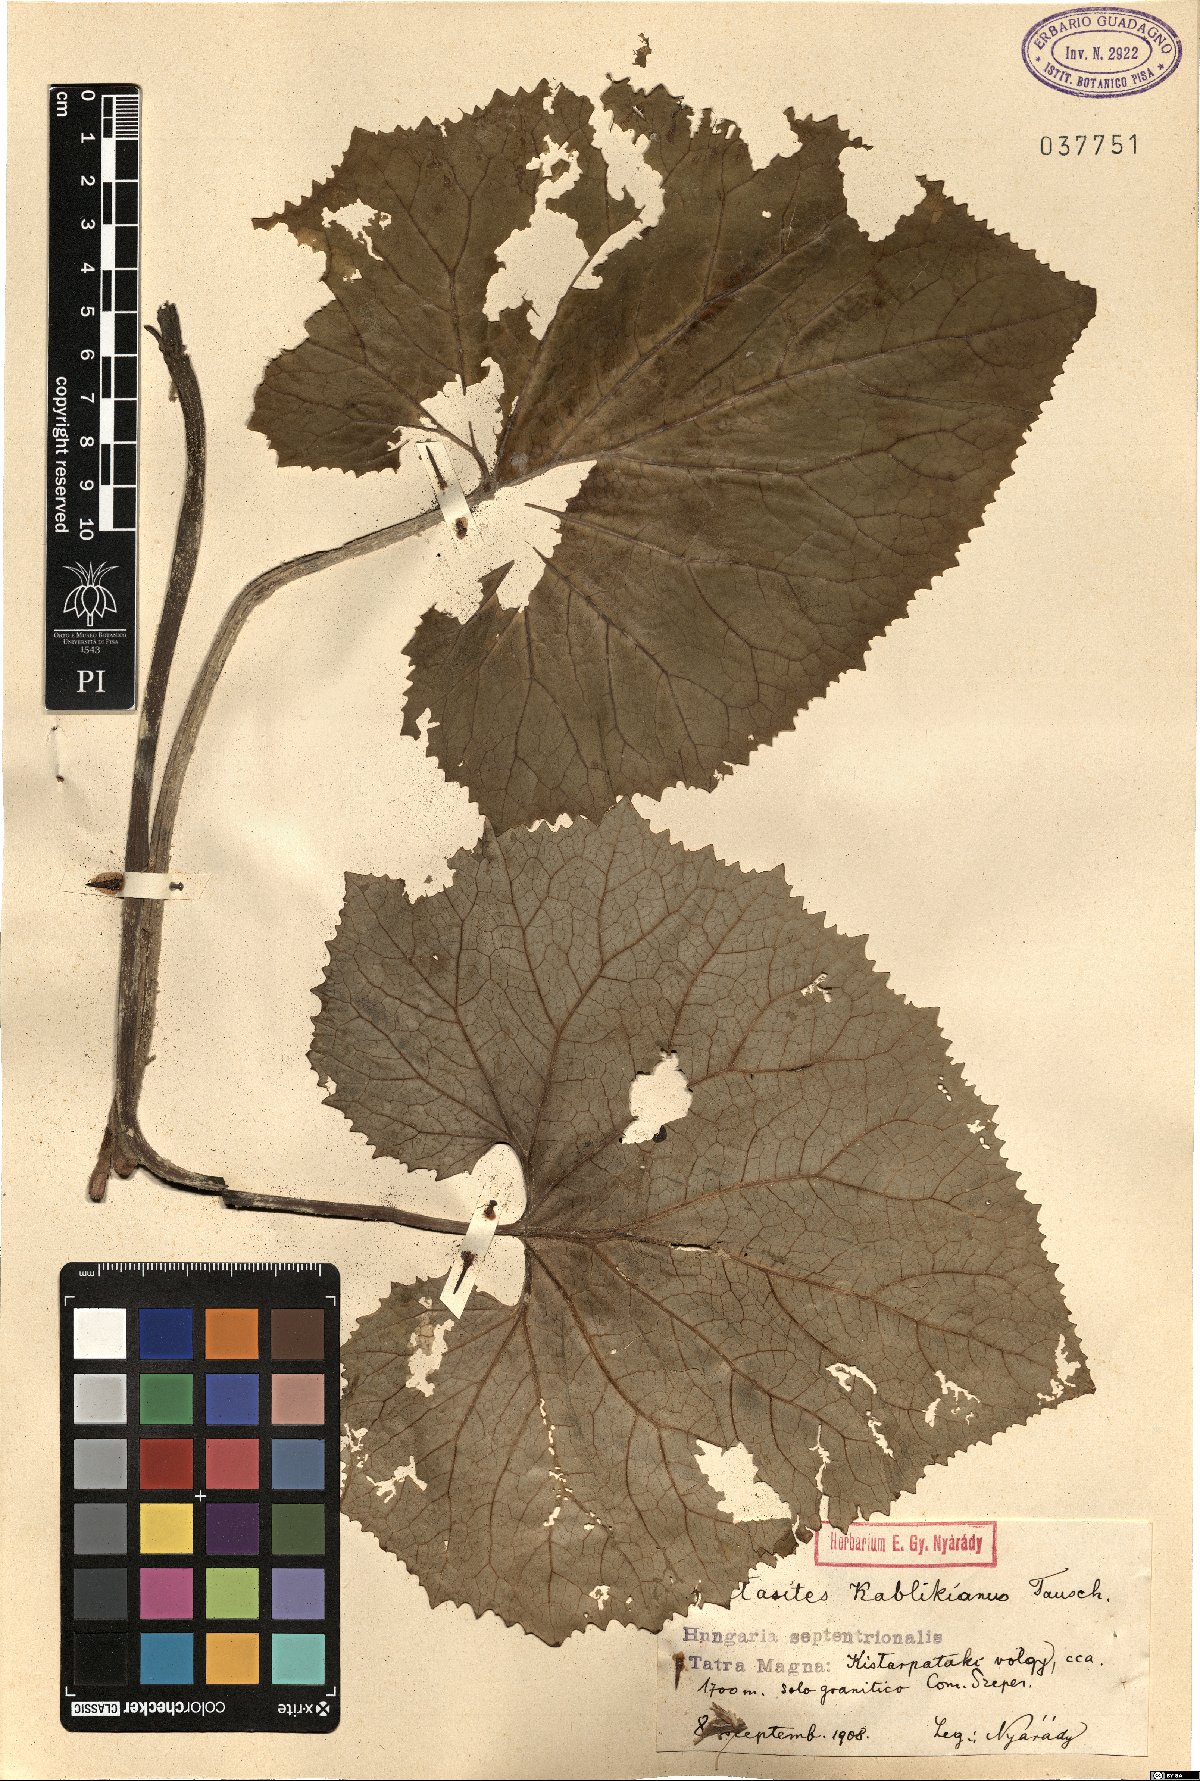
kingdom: Plantae
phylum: Tracheophyta
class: Magnoliopsida
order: Asterales
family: Asteraceae
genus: Petasites
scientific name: Petasites kablikianus
